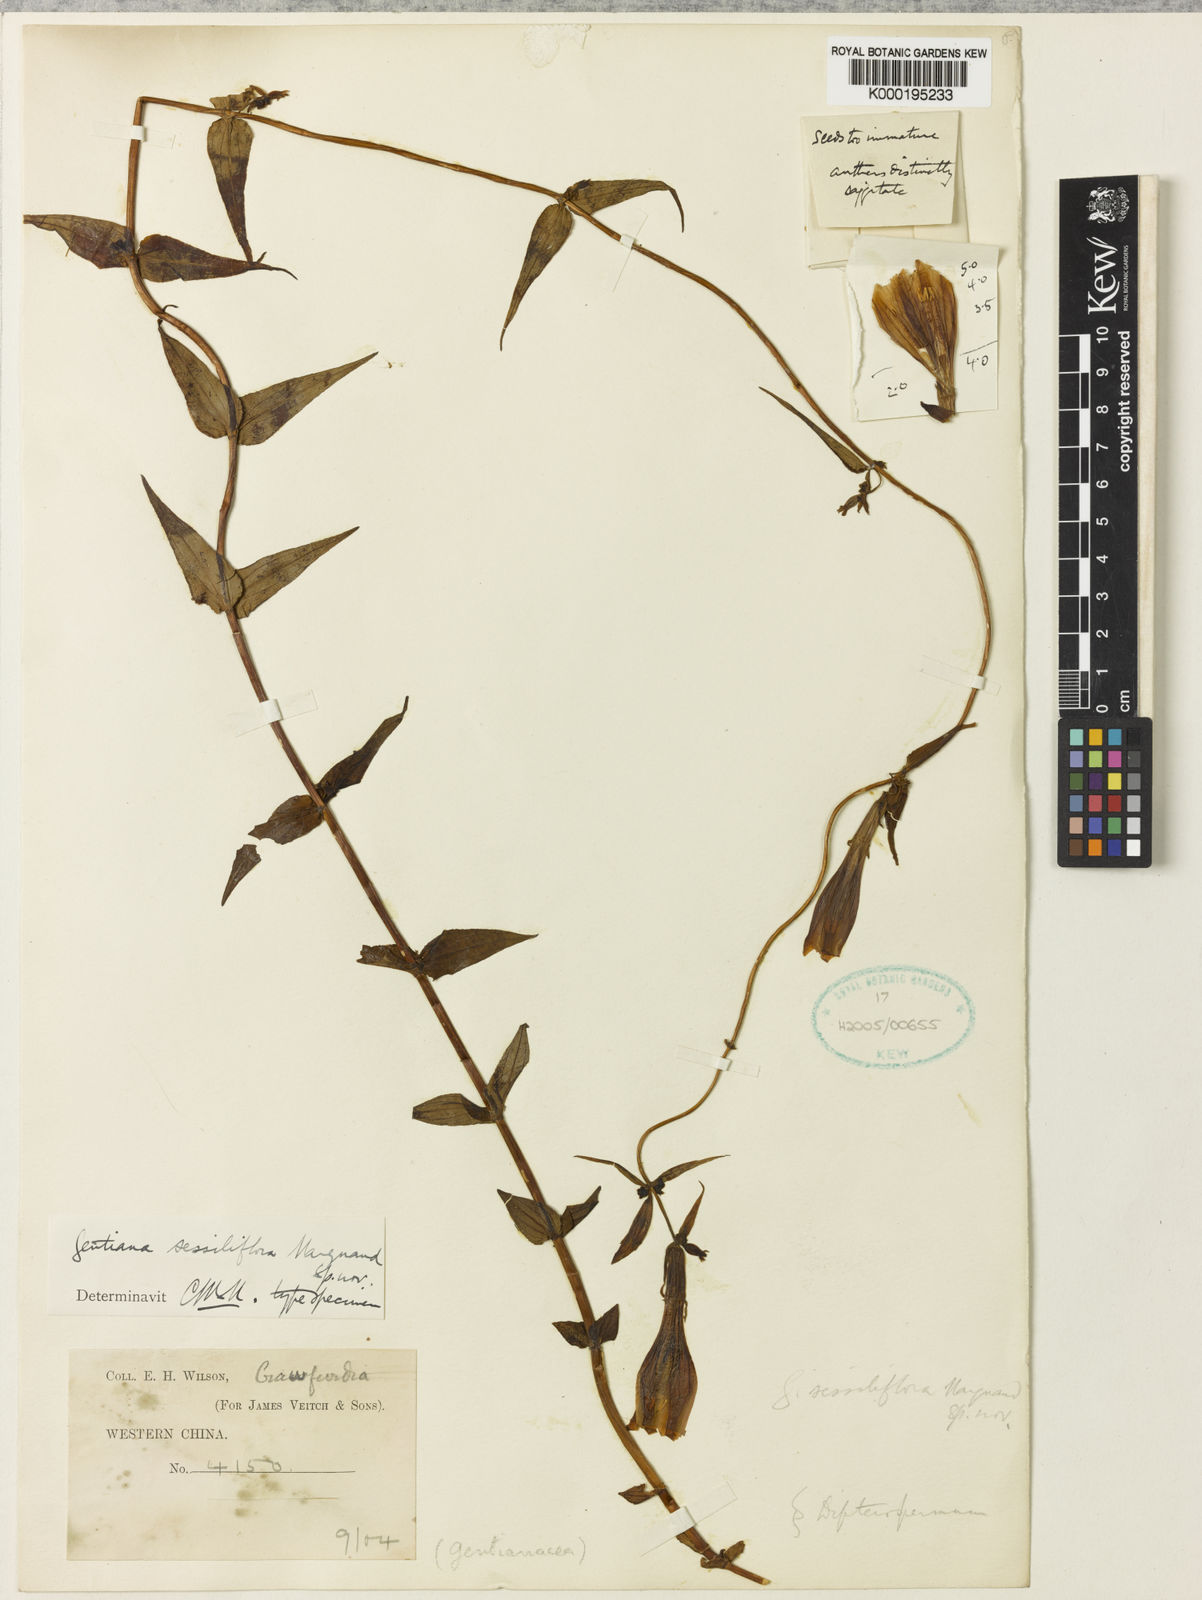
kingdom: Plantae
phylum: Tracheophyta
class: Magnoliopsida
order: Gentianales
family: Gentianaceae
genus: Crawfurdia
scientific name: Crawfurdia sessiliflora
